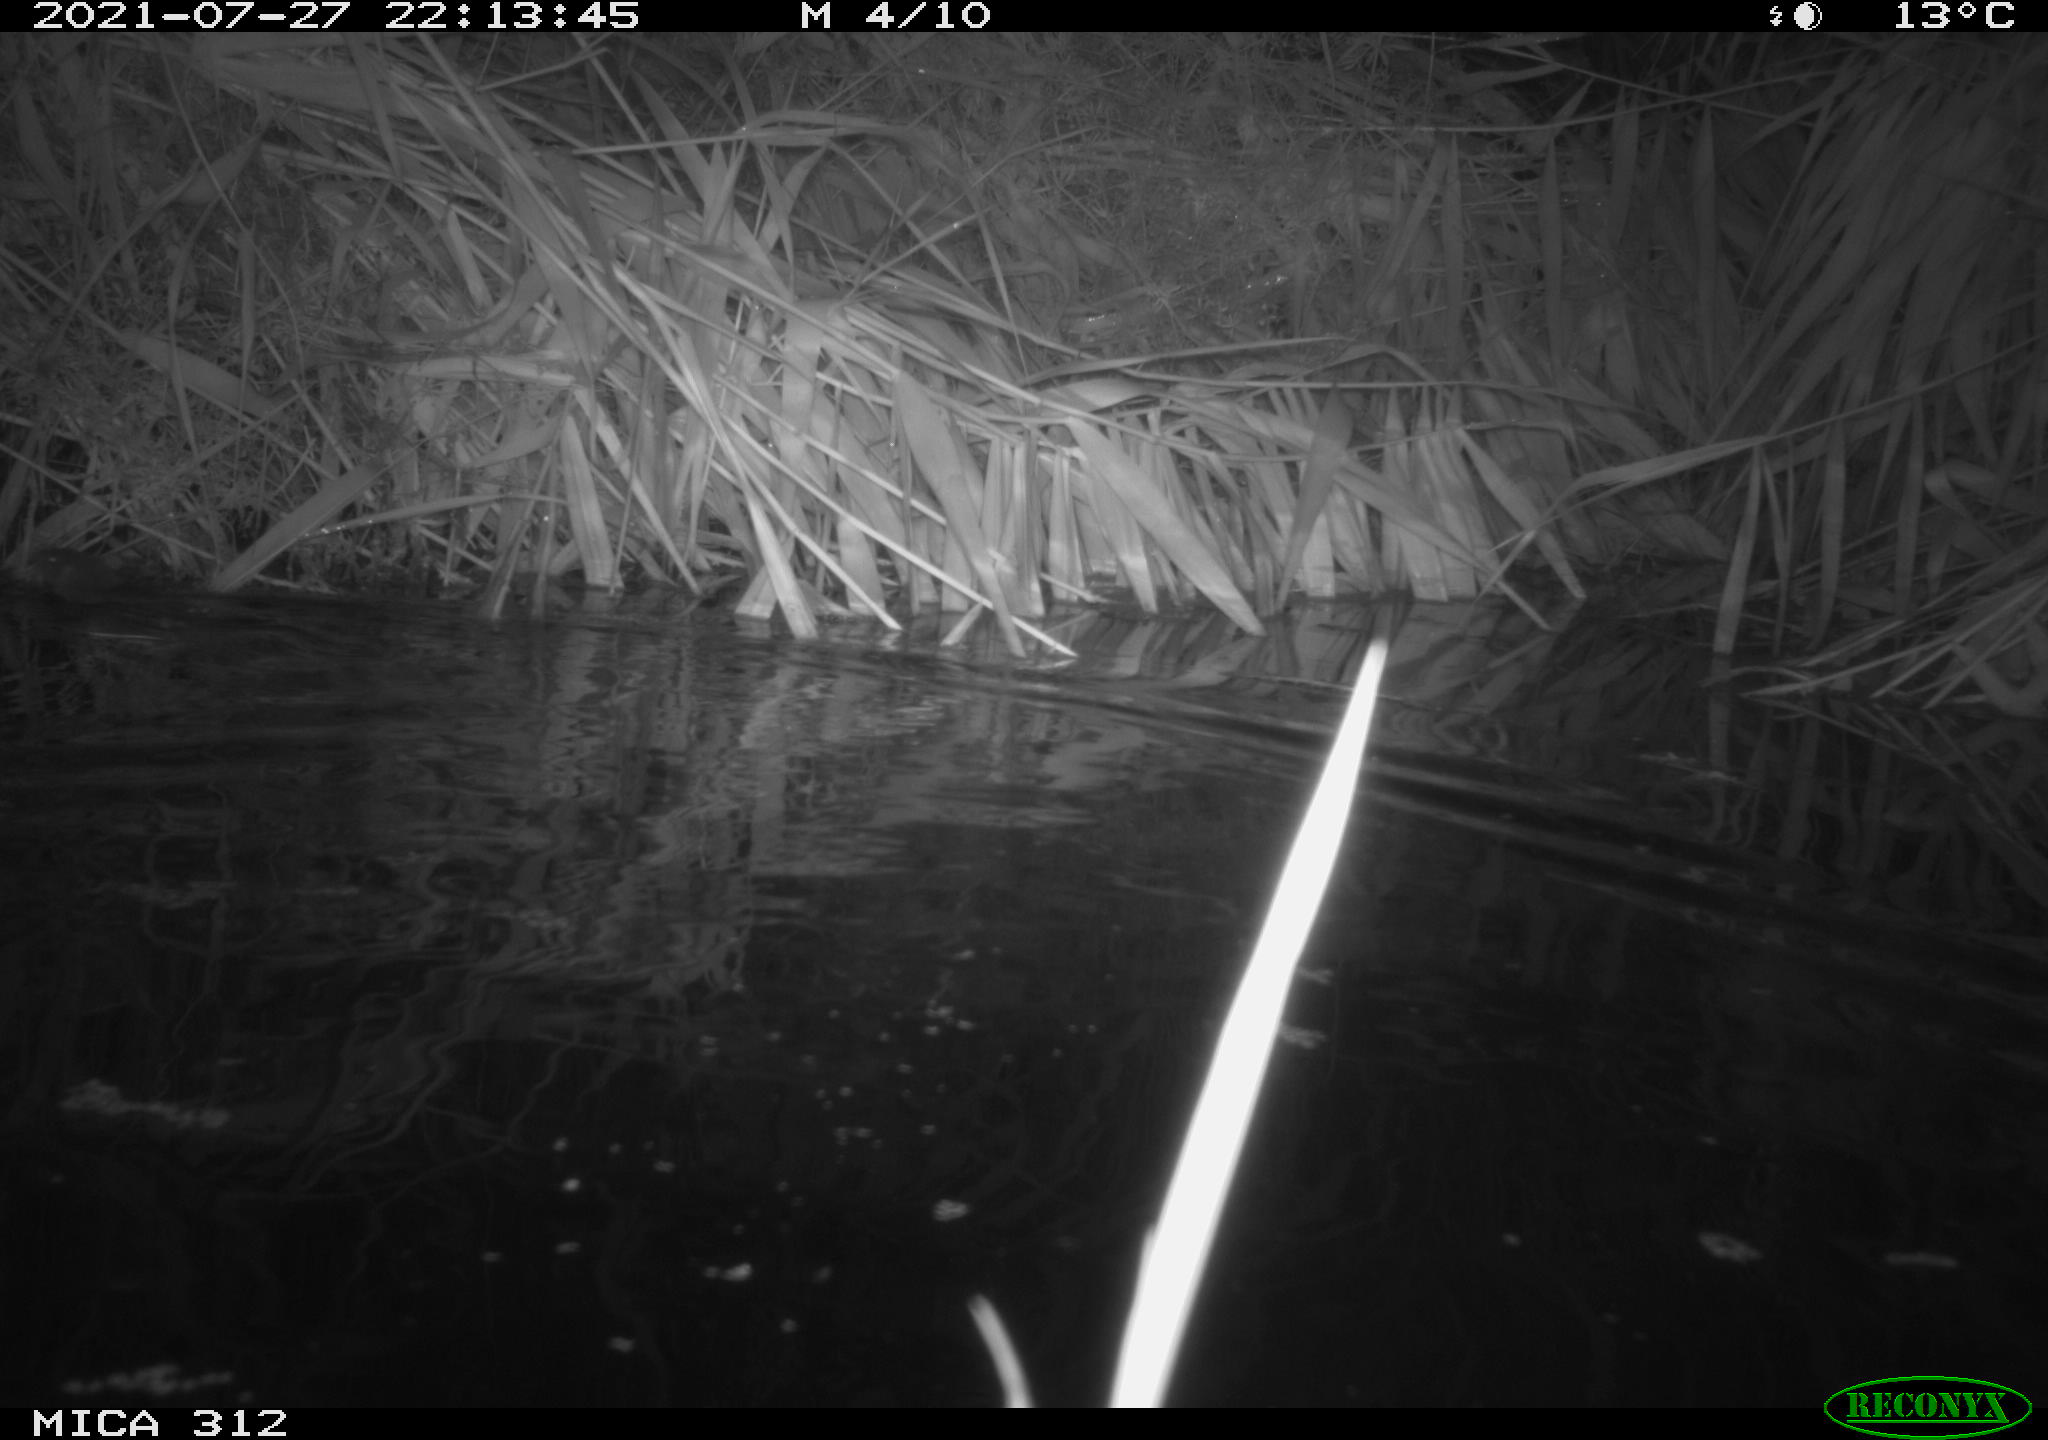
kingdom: Animalia
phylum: Chordata
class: Mammalia
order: Rodentia
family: Muridae
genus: Rattus
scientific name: Rattus norvegicus
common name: Brown rat
